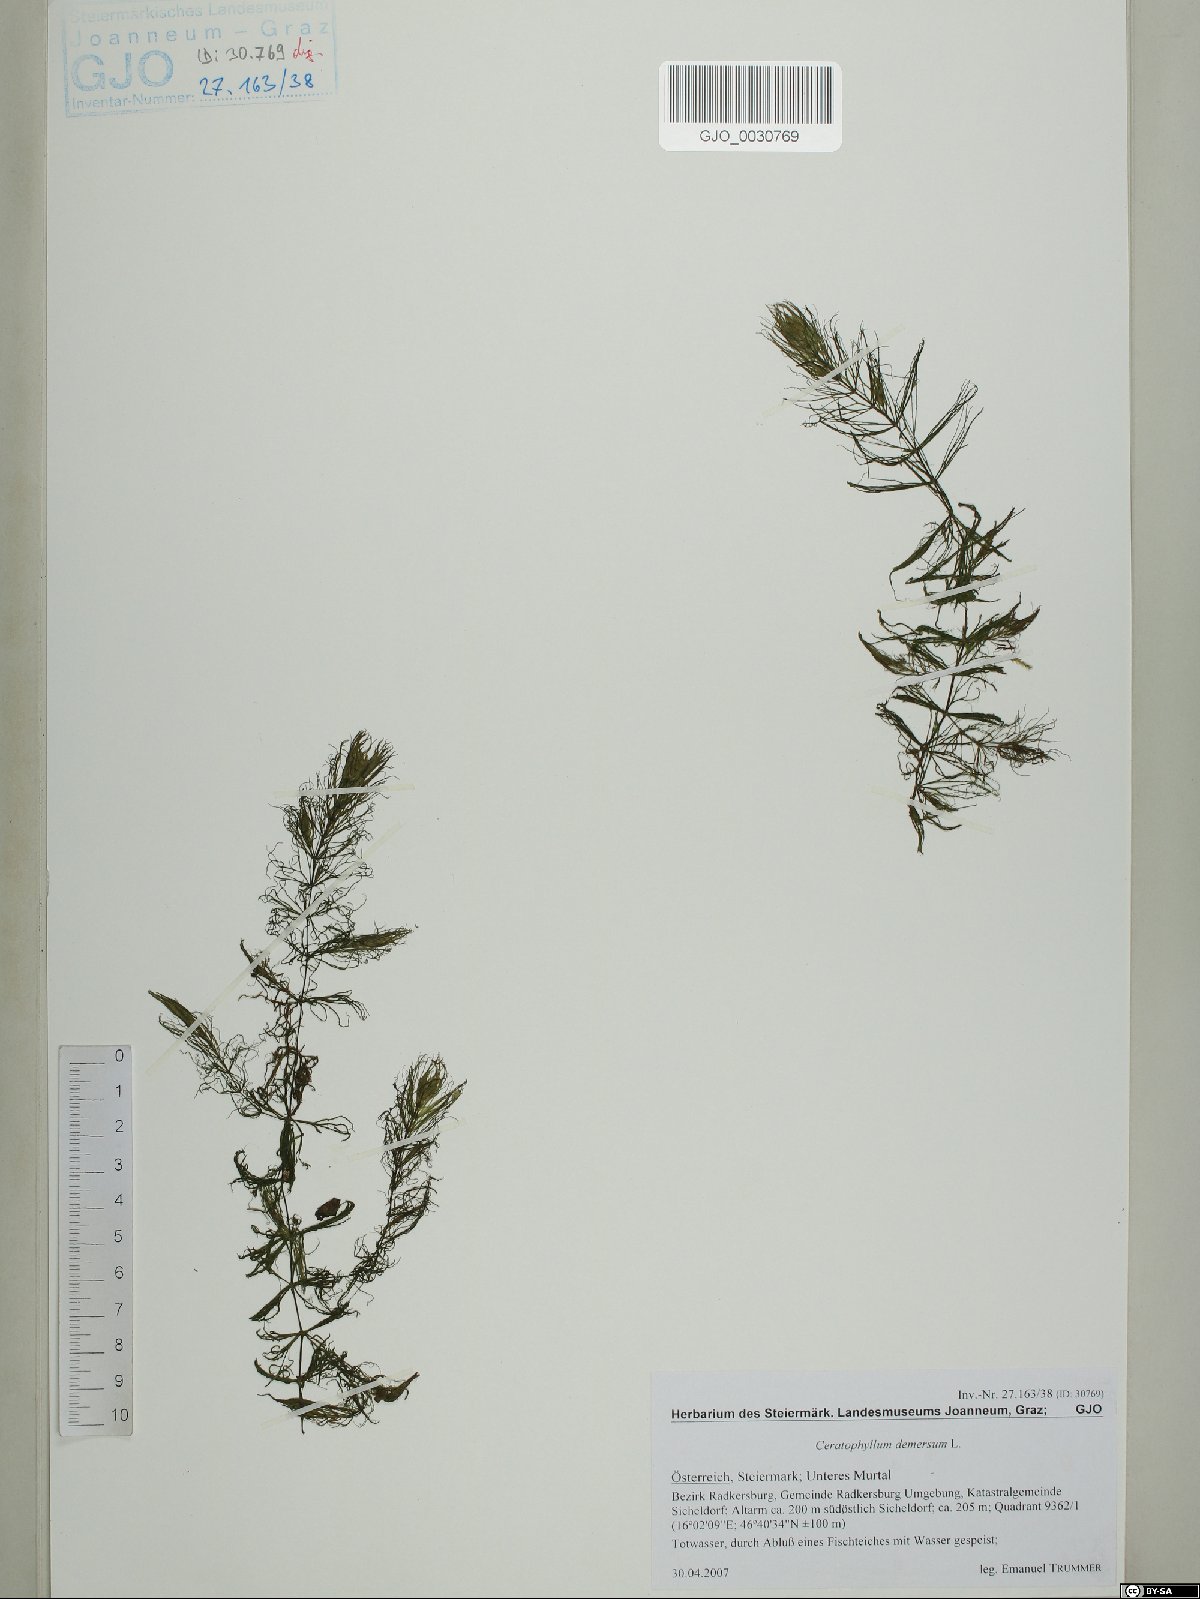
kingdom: Plantae
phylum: Tracheophyta
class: Magnoliopsida
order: Ceratophyllales
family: Ceratophyllaceae
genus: Ceratophyllum
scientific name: Ceratophyllum demersum
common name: Rigid hornwort
